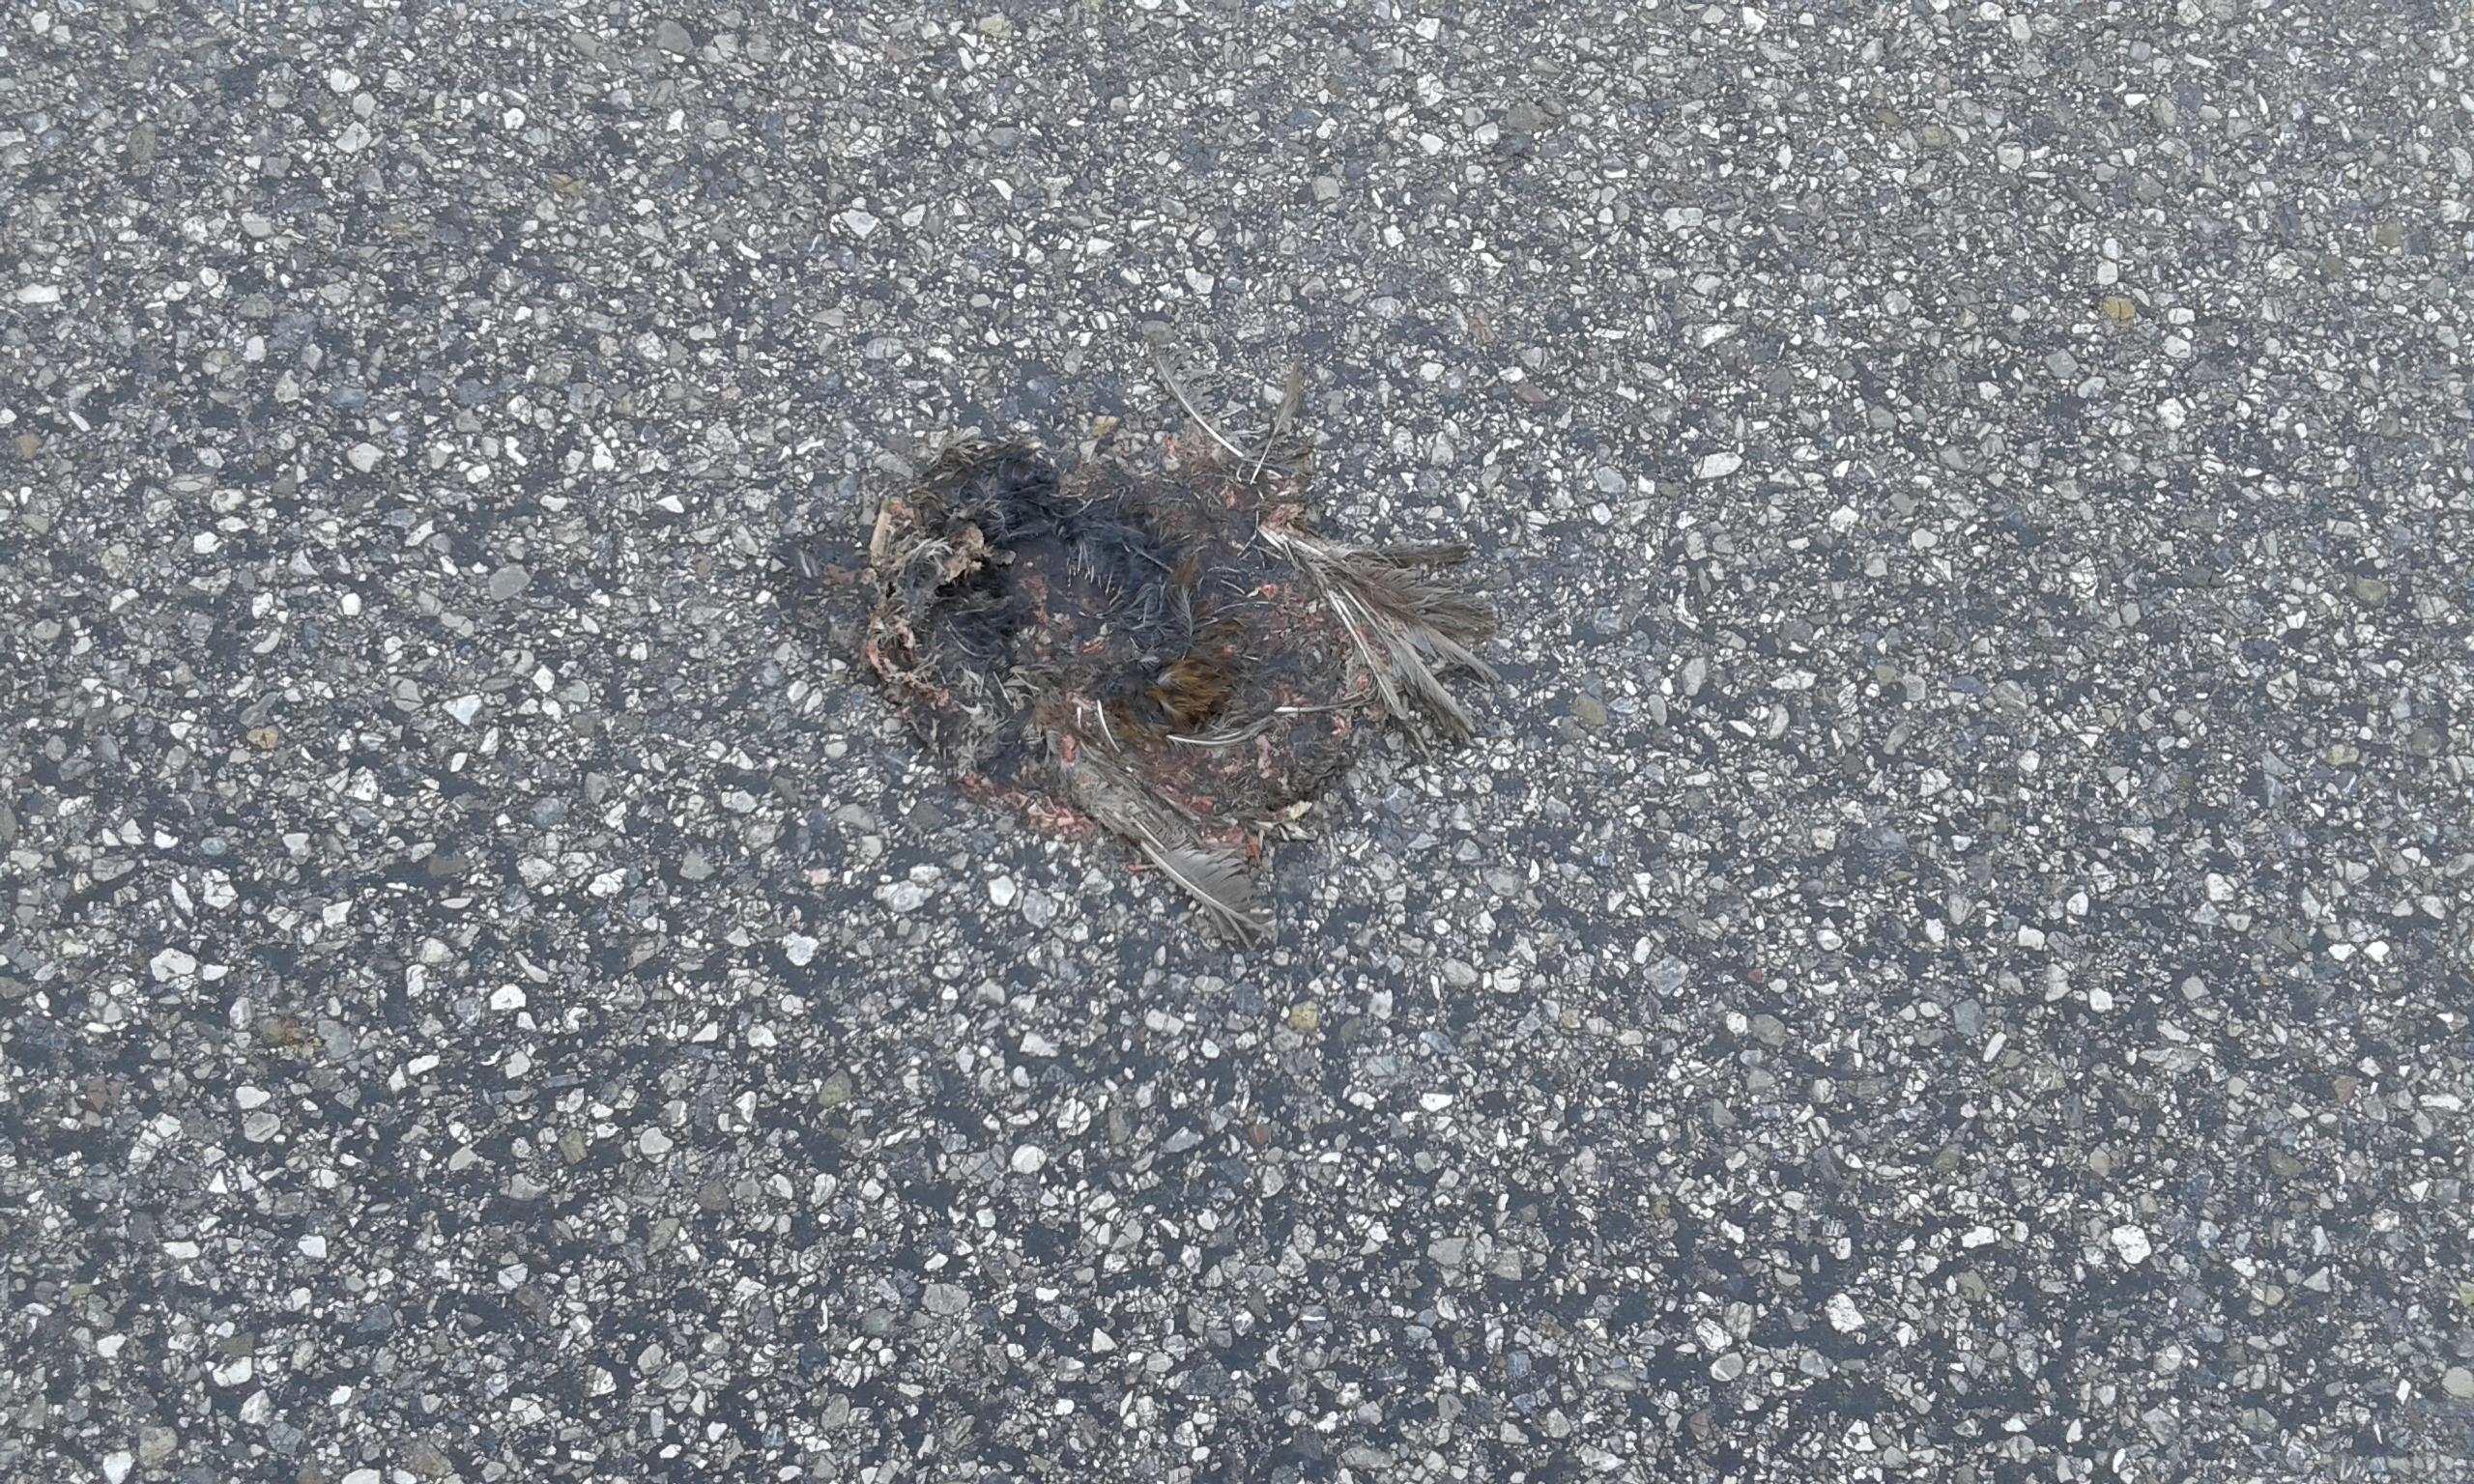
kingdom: Animalia
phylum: Chordata
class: Aves
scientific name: Aves
